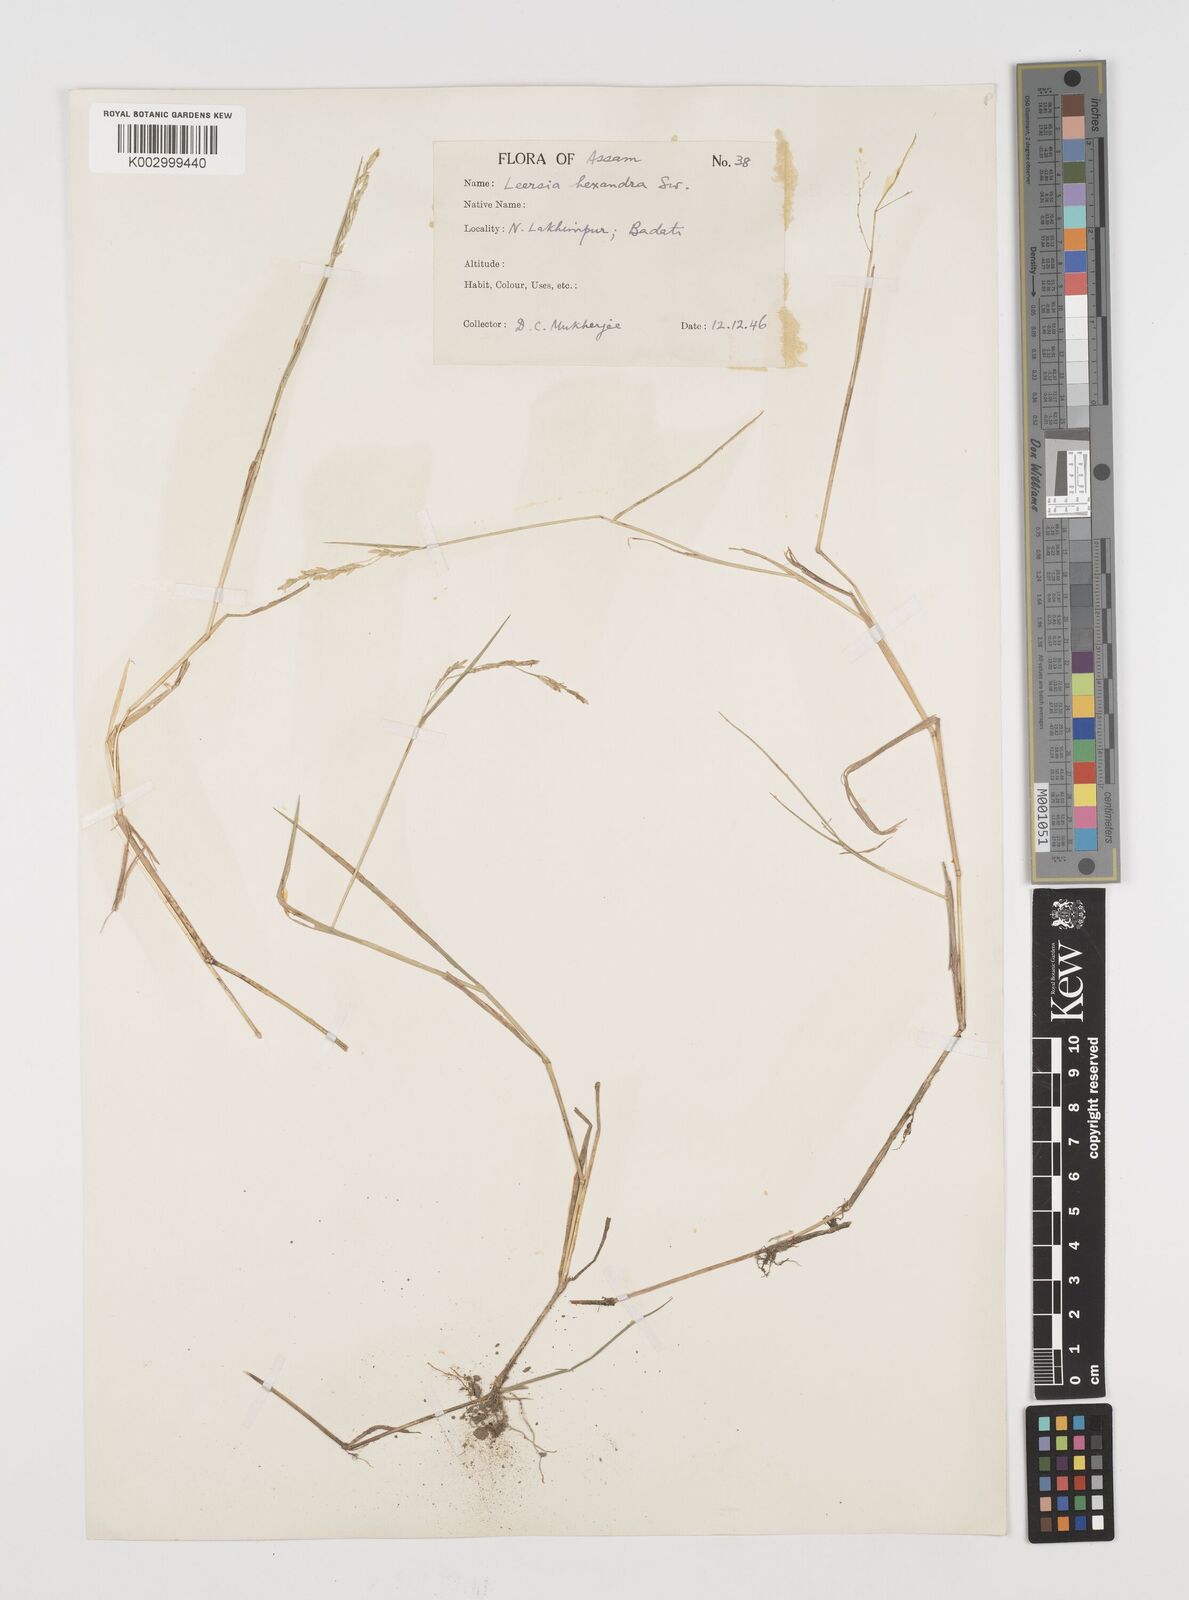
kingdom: Plantae
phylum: Tracheophyta
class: Liliopsida
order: Poales
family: Poaceae
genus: Leersia
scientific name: Leersia hexandra
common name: Southern cut grass
